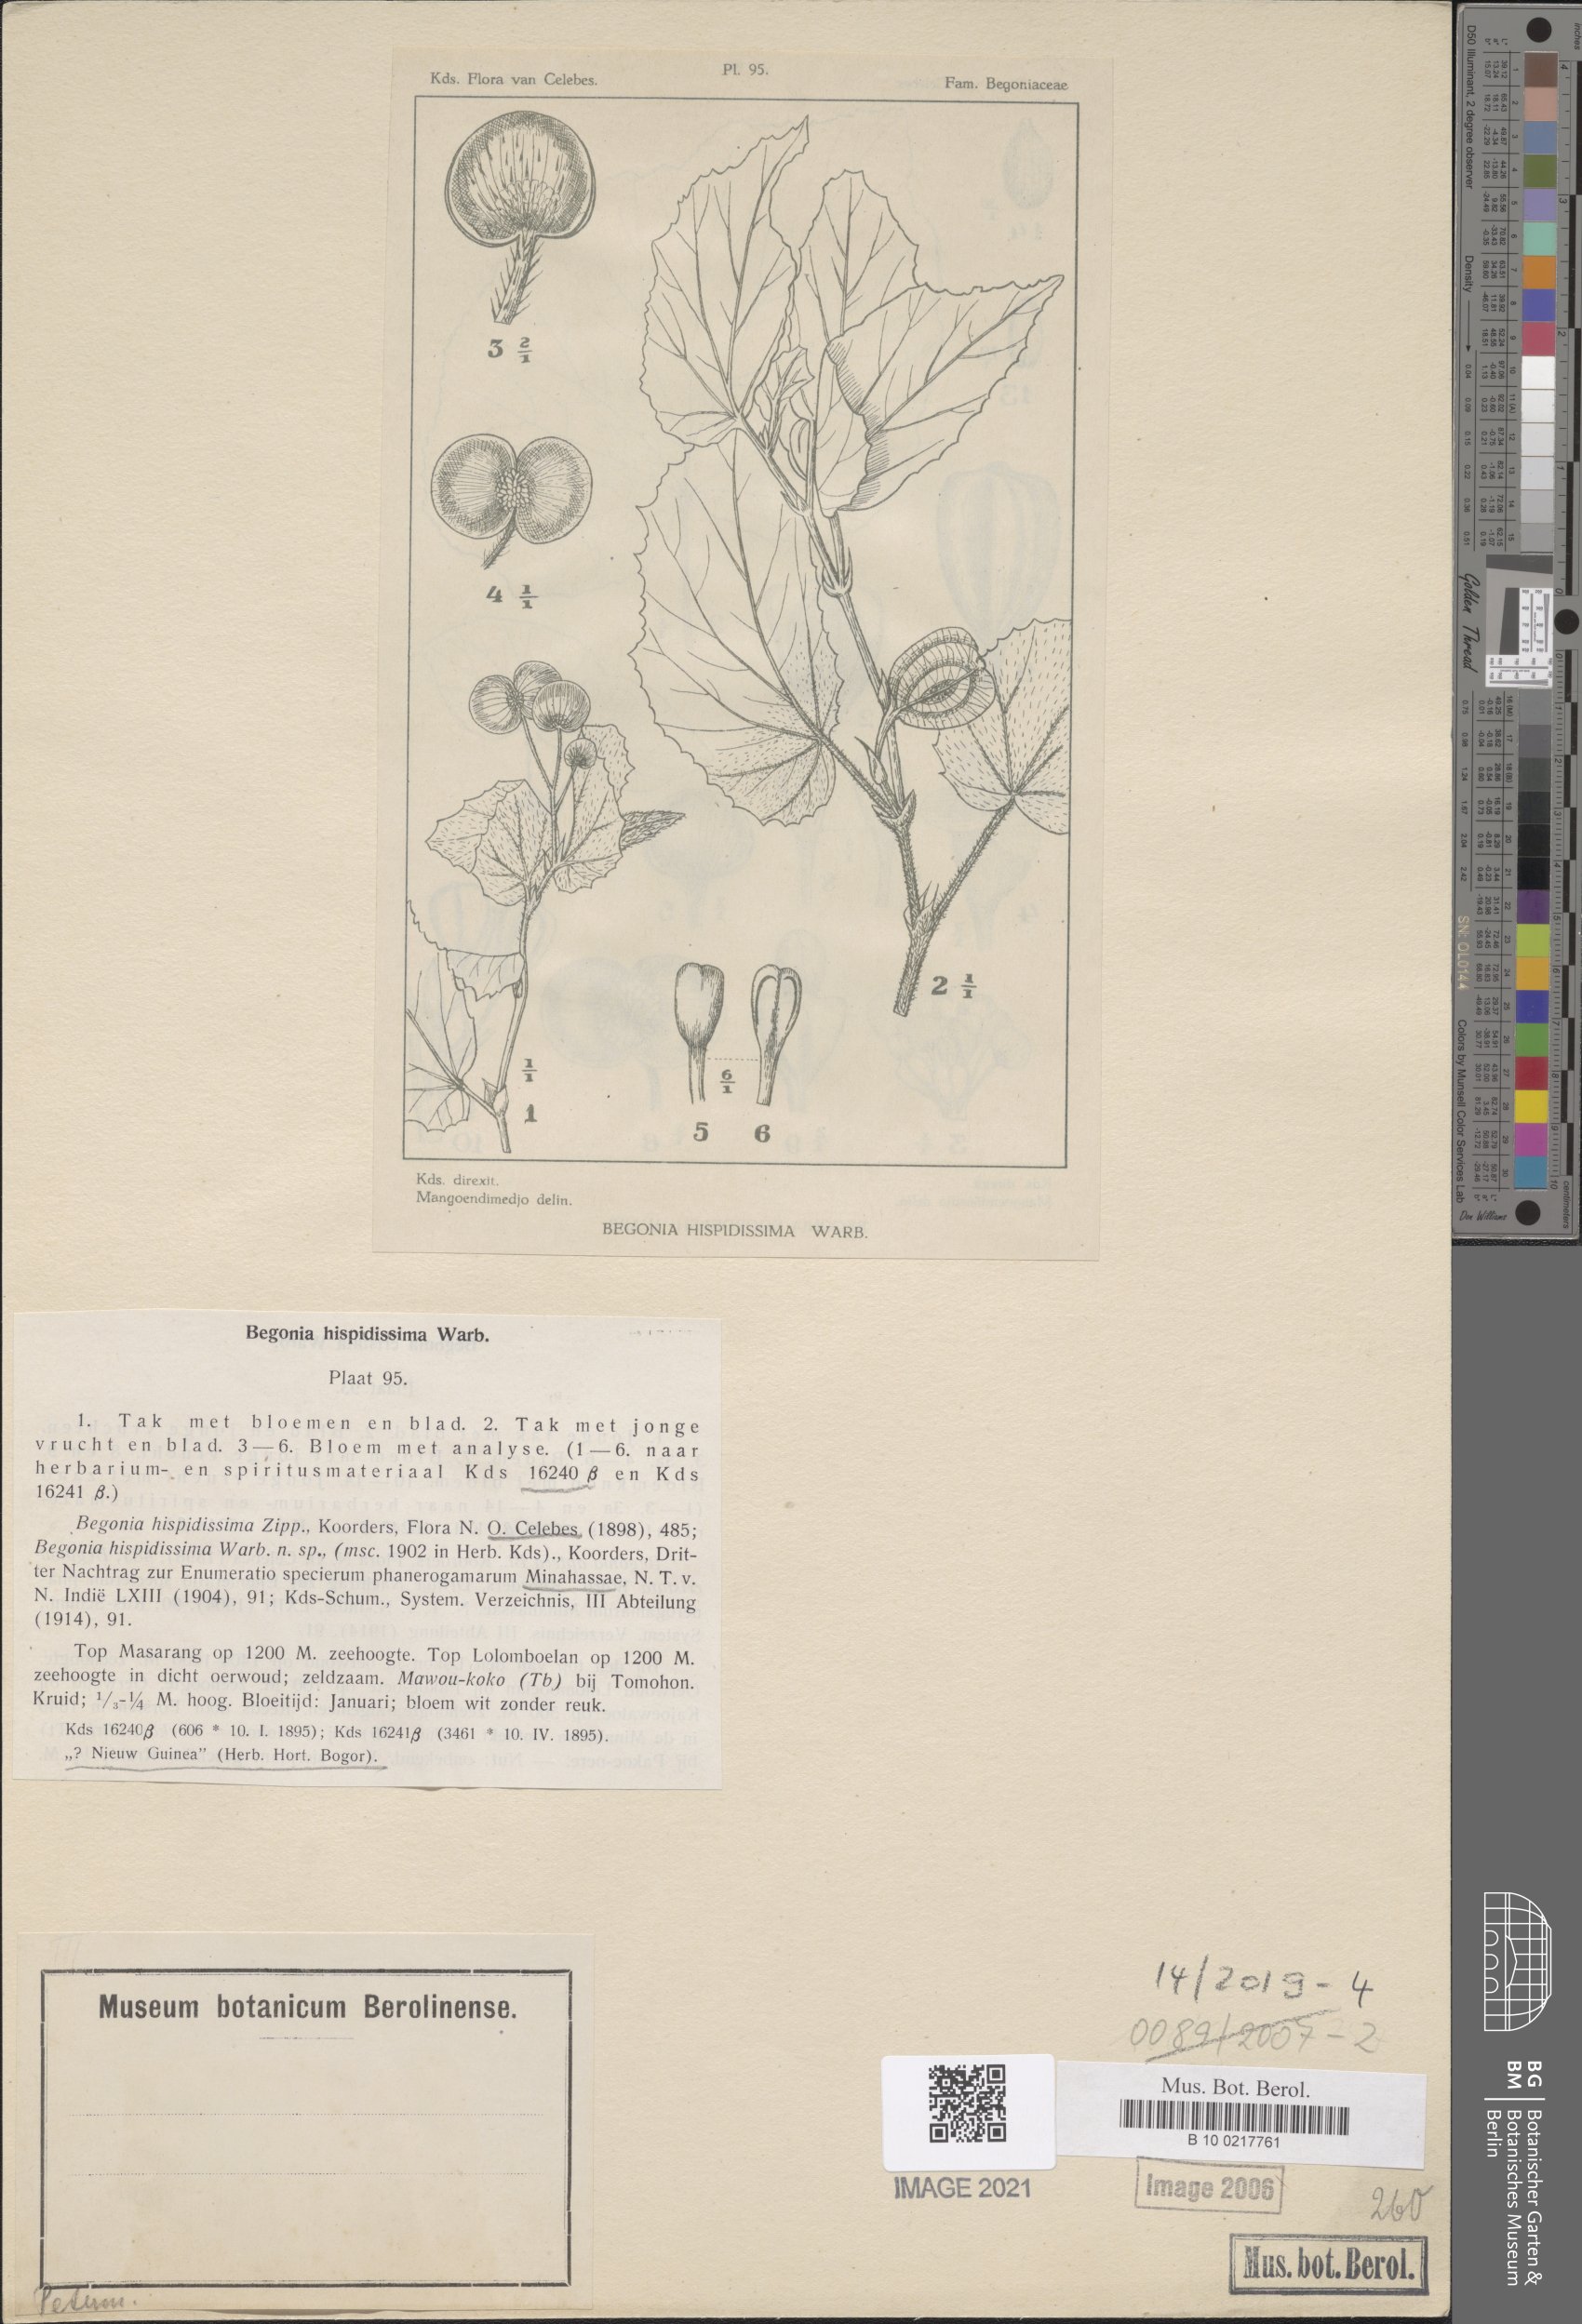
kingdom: Plantae
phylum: Tracheophyta
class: Magnoliopsida
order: Cucurbitales
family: Begoniaceae
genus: Begonia
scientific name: Begonia hispidissima
